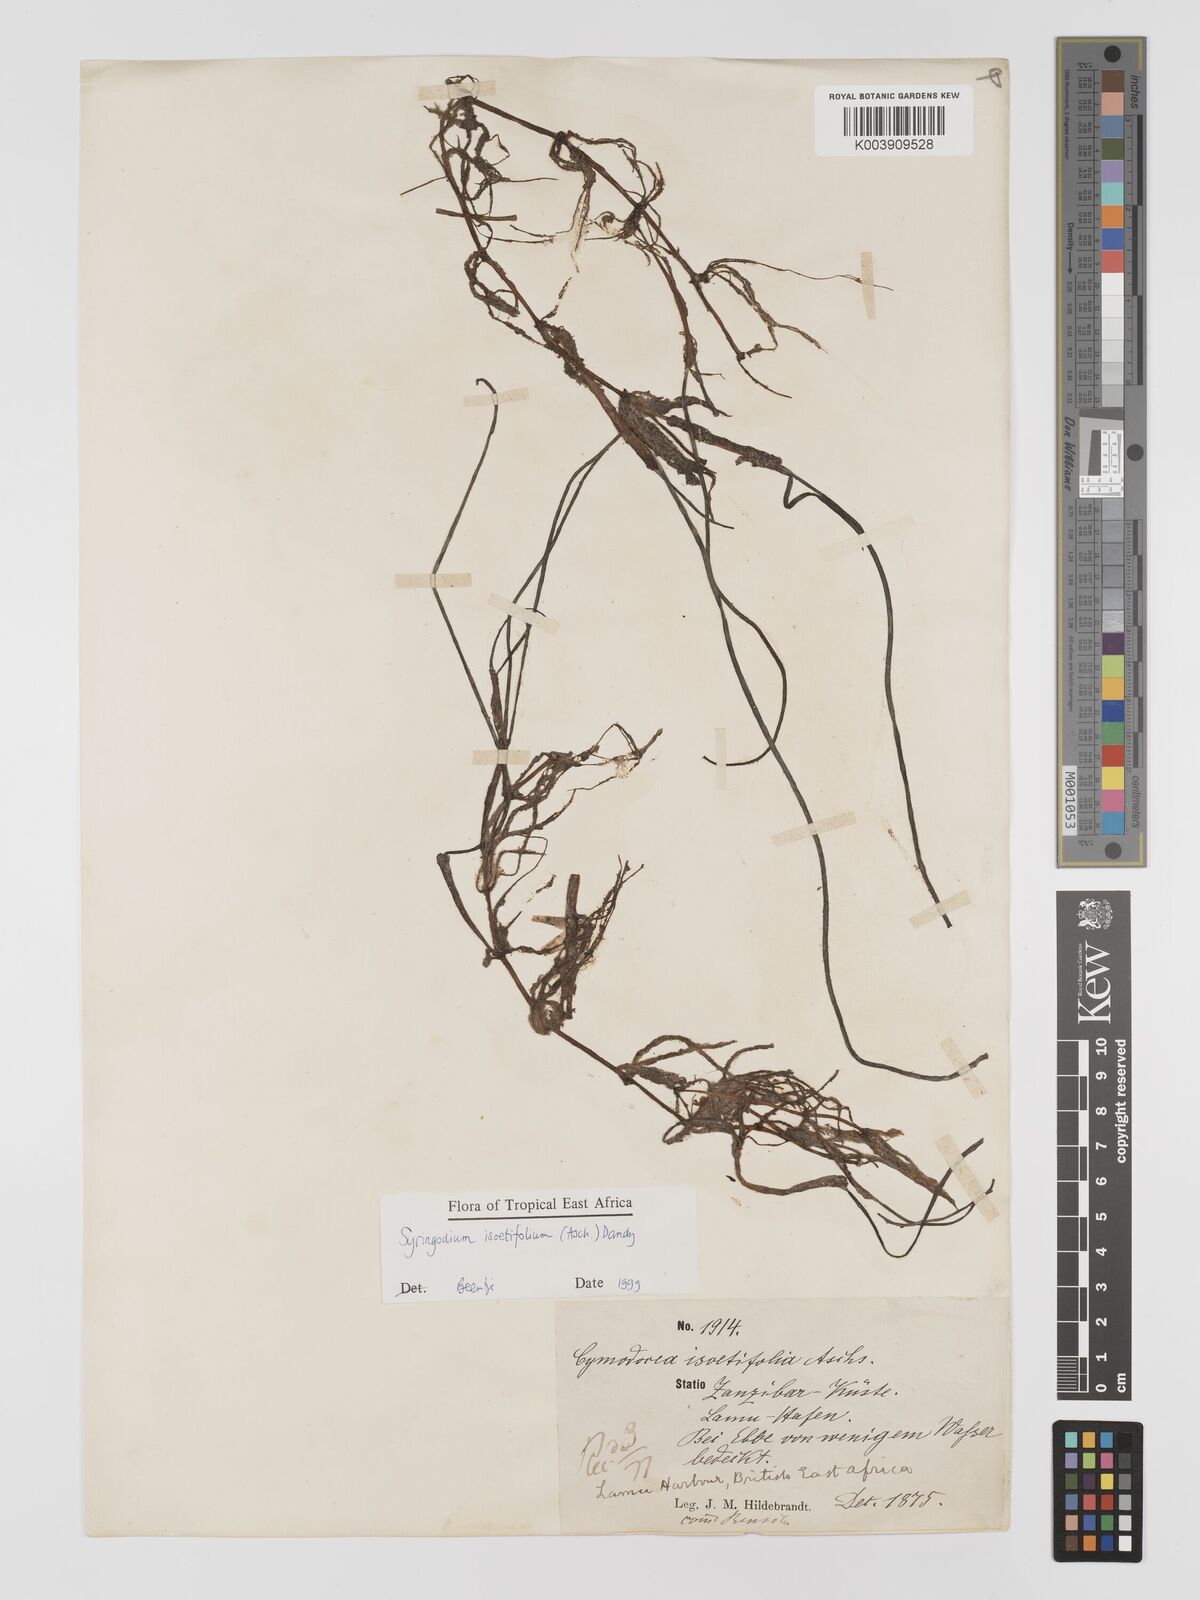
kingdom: Plantae
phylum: Tracheophyta
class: Liliopsida
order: Alismatales
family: Cymodoceaceae
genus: Syringodium
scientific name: Syringodium isoetifolium
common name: Species code: si
